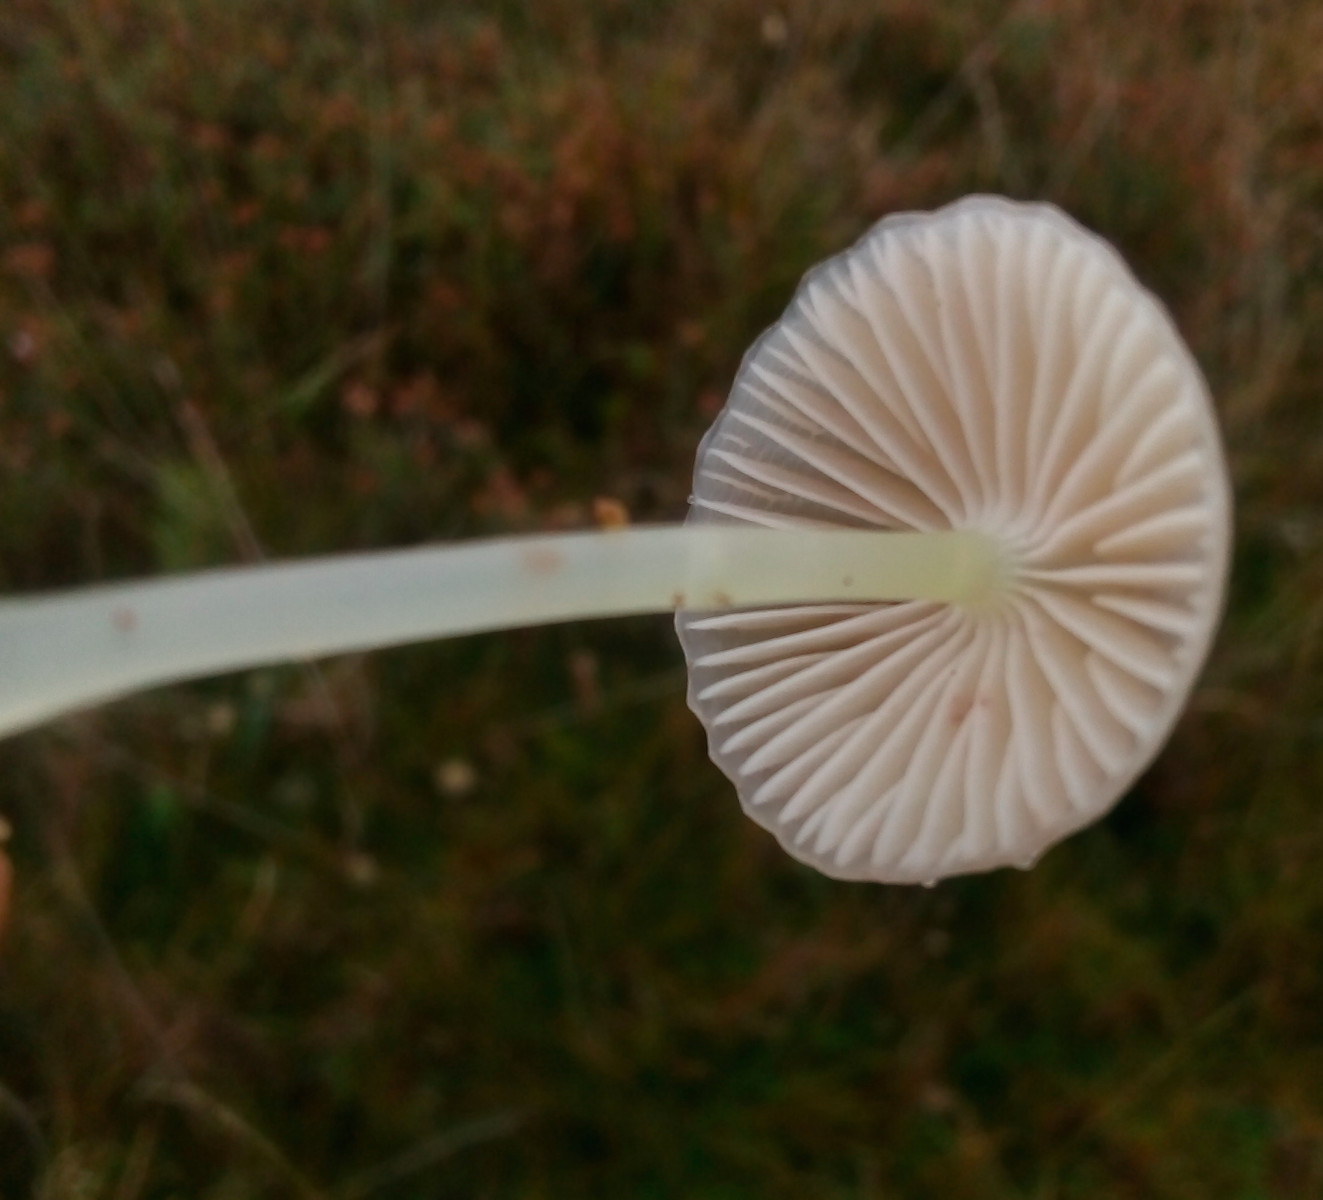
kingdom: Fungi
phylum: Basidiomycota
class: Agaricomycetes
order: Agaricales
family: Mycenaceae
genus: Mycena
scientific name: Mycena epipterygia
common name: gulstokket huesvamp
